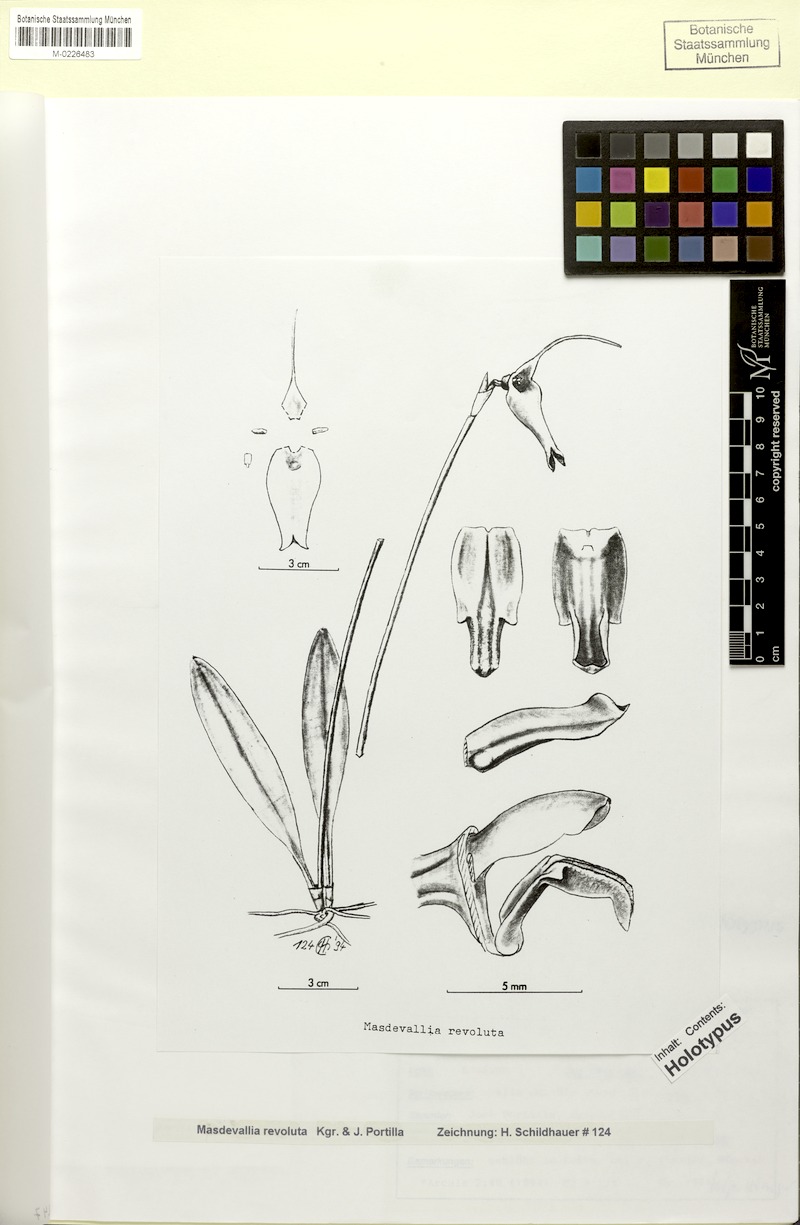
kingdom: Plantae
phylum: Tracheophyta
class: Liliopsida
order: Asparagales
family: Orchidaceae
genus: Masdevallia
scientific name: Masdevallia revoluta
